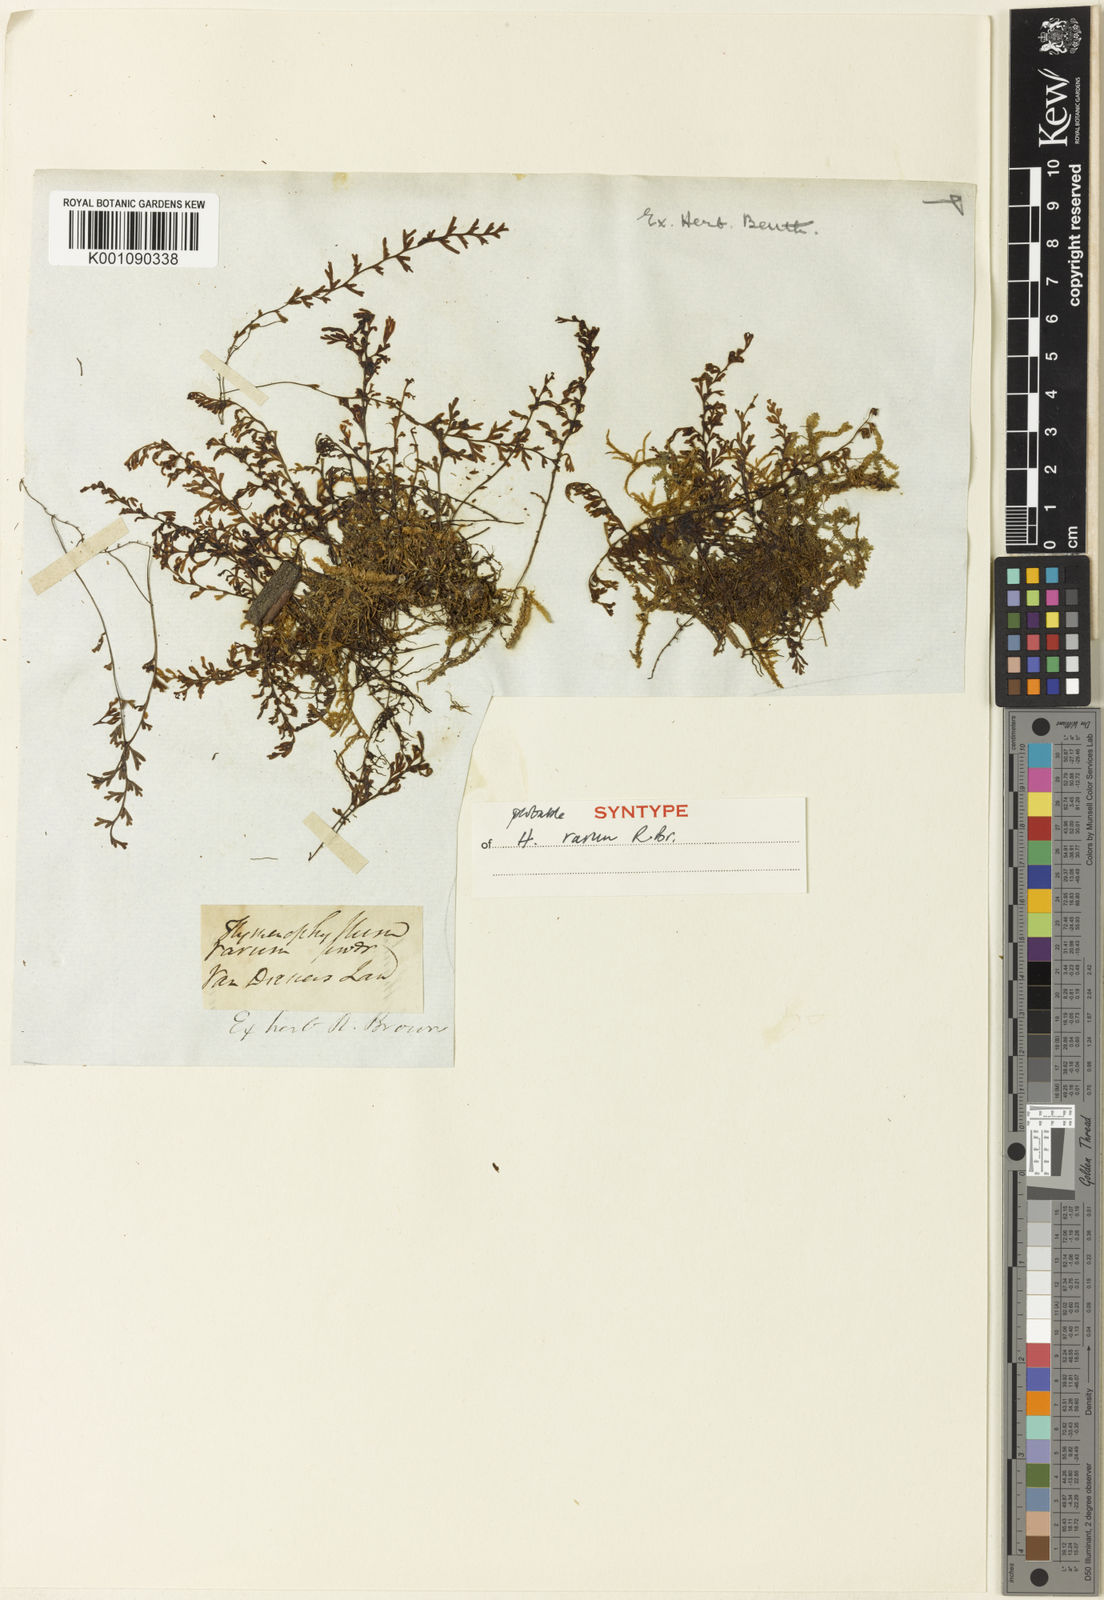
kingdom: Plantae
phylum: Tracheophyta
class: Polypodiopsida
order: Hymenophyllales
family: Hymenophyllaceae
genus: Hymenophyllum
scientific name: Hymenophyllum rarum
